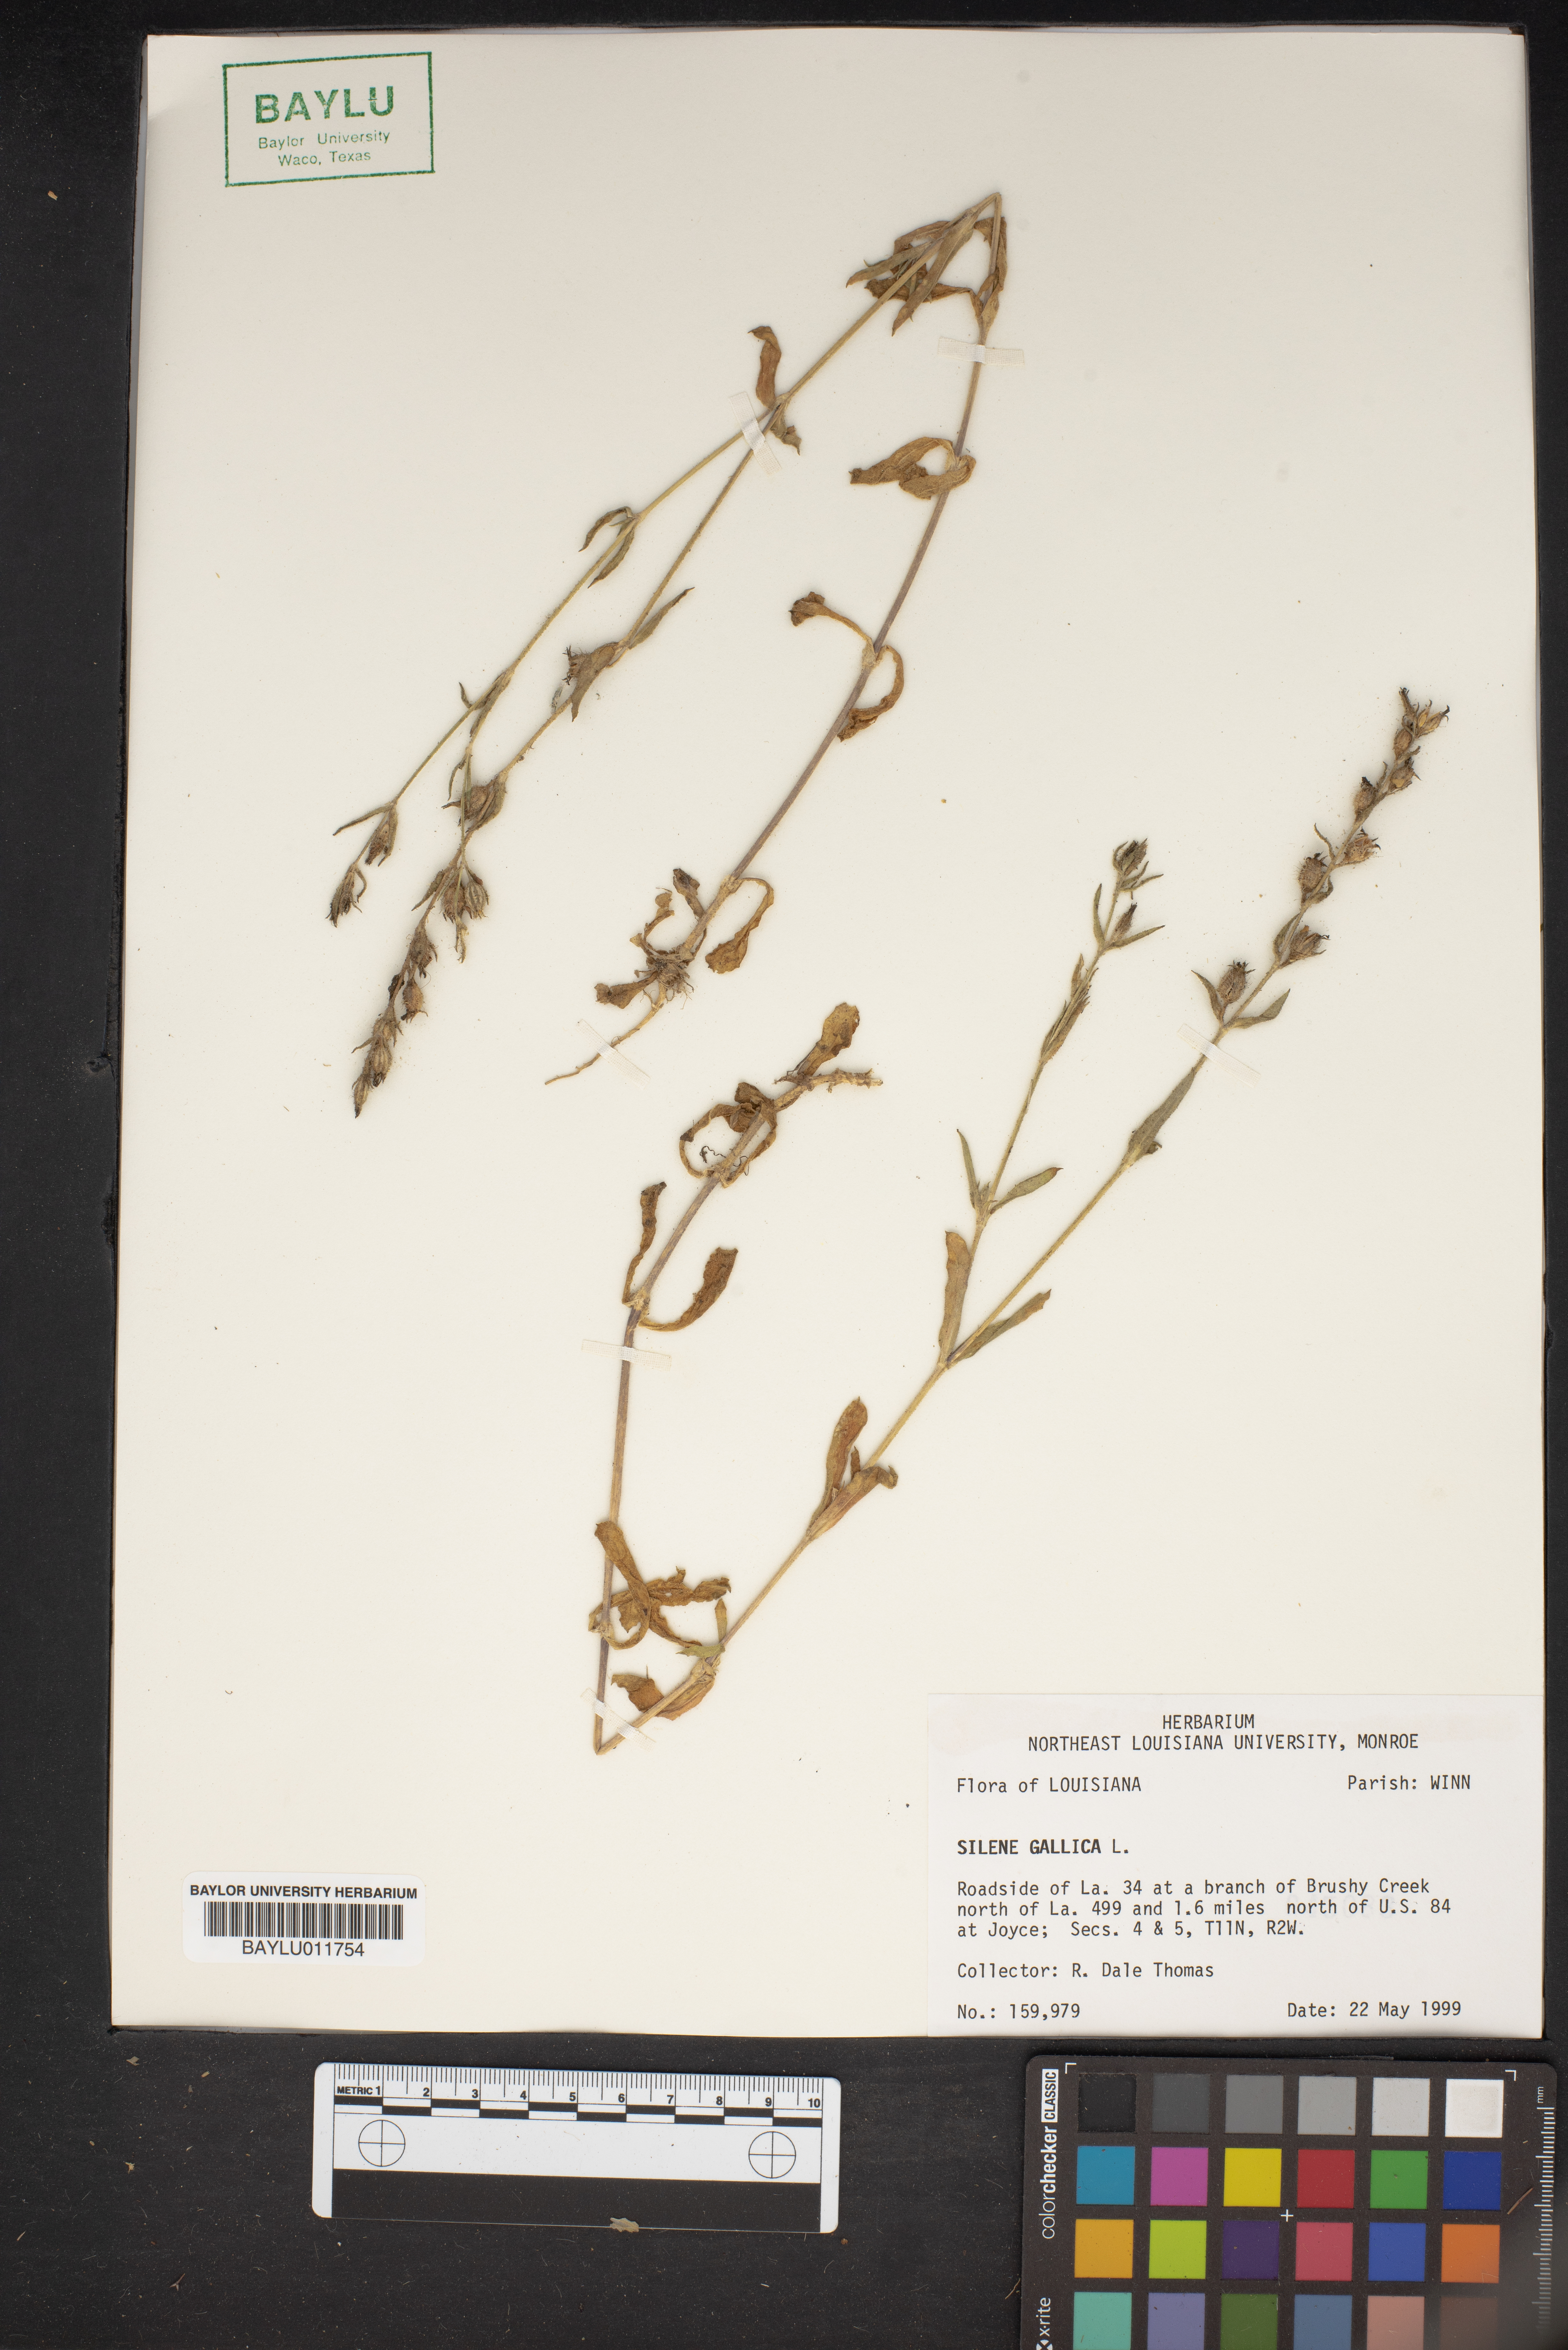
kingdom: Plantae
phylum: Tracheophyta
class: Magnoliopsida
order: Caryophyllales
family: Caryophyllaceae
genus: Silene
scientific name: Silene gallica
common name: Small-flowered catchfly
